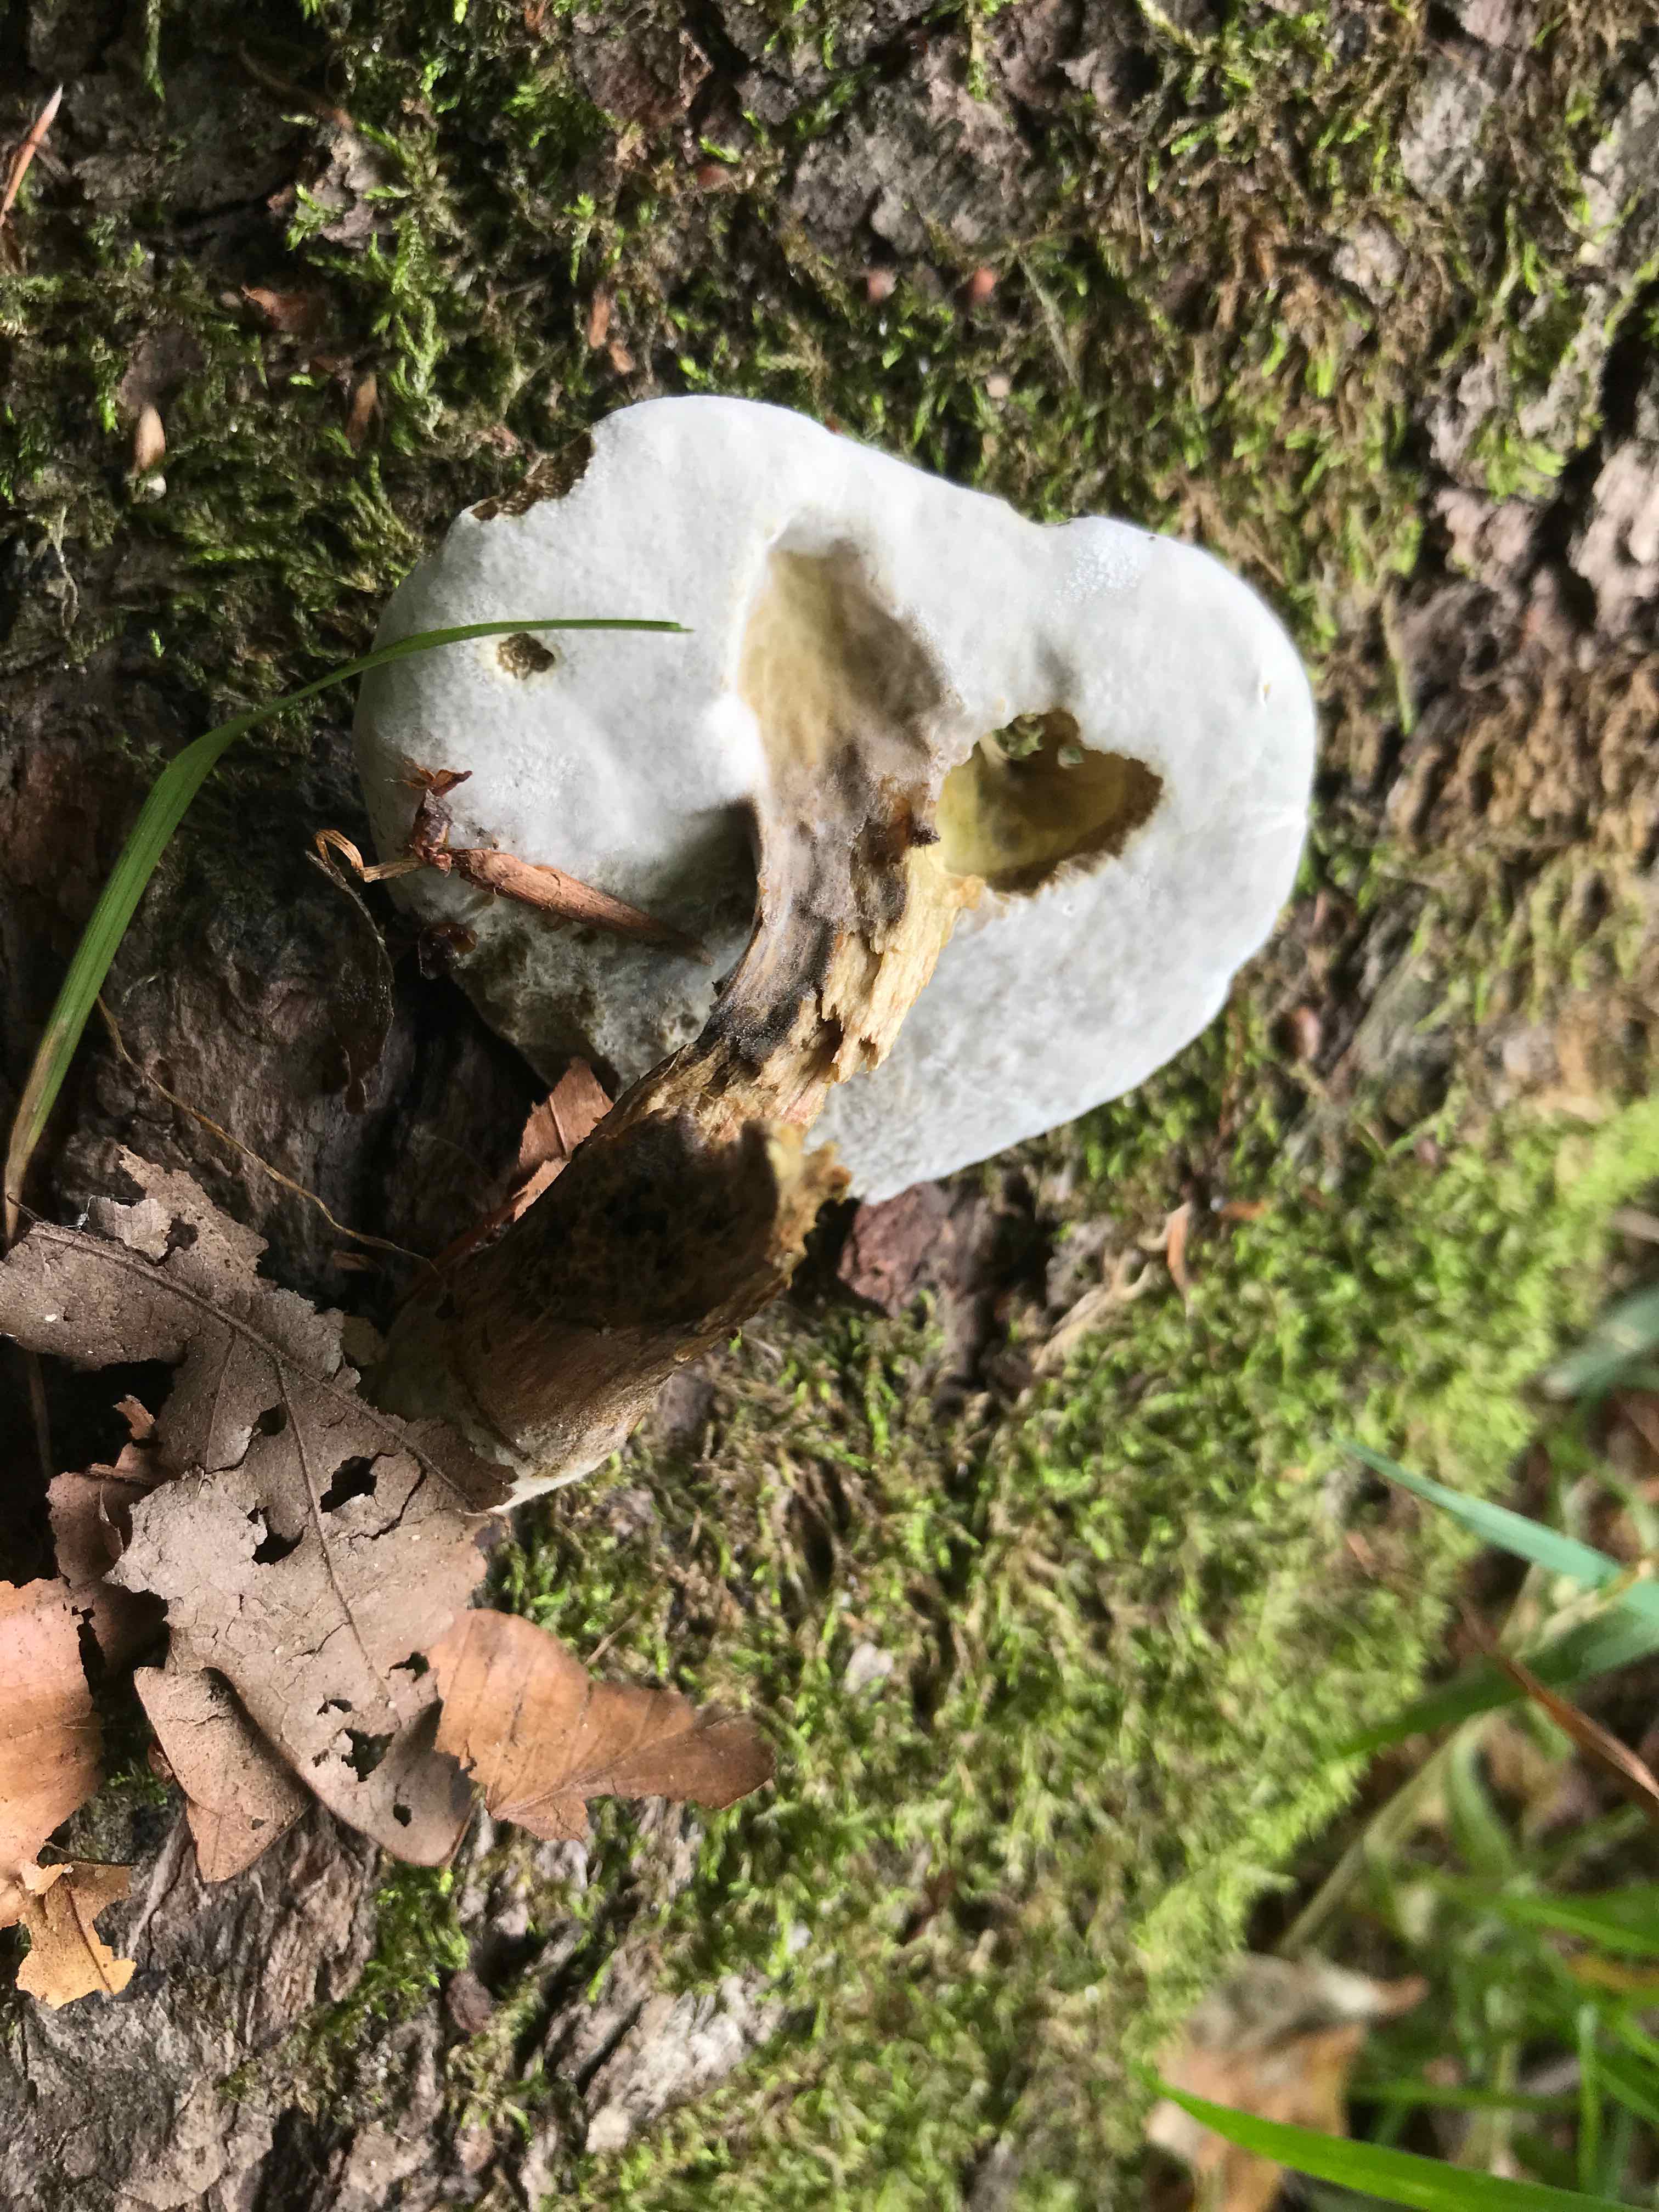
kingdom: Fungi
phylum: Ascomycota
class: Sordariomycetes
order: Hypocreales
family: Hypocreaceae
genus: Hypomyces
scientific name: Hypomyces microspermus
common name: dværgrørhat-snylteskorpe
